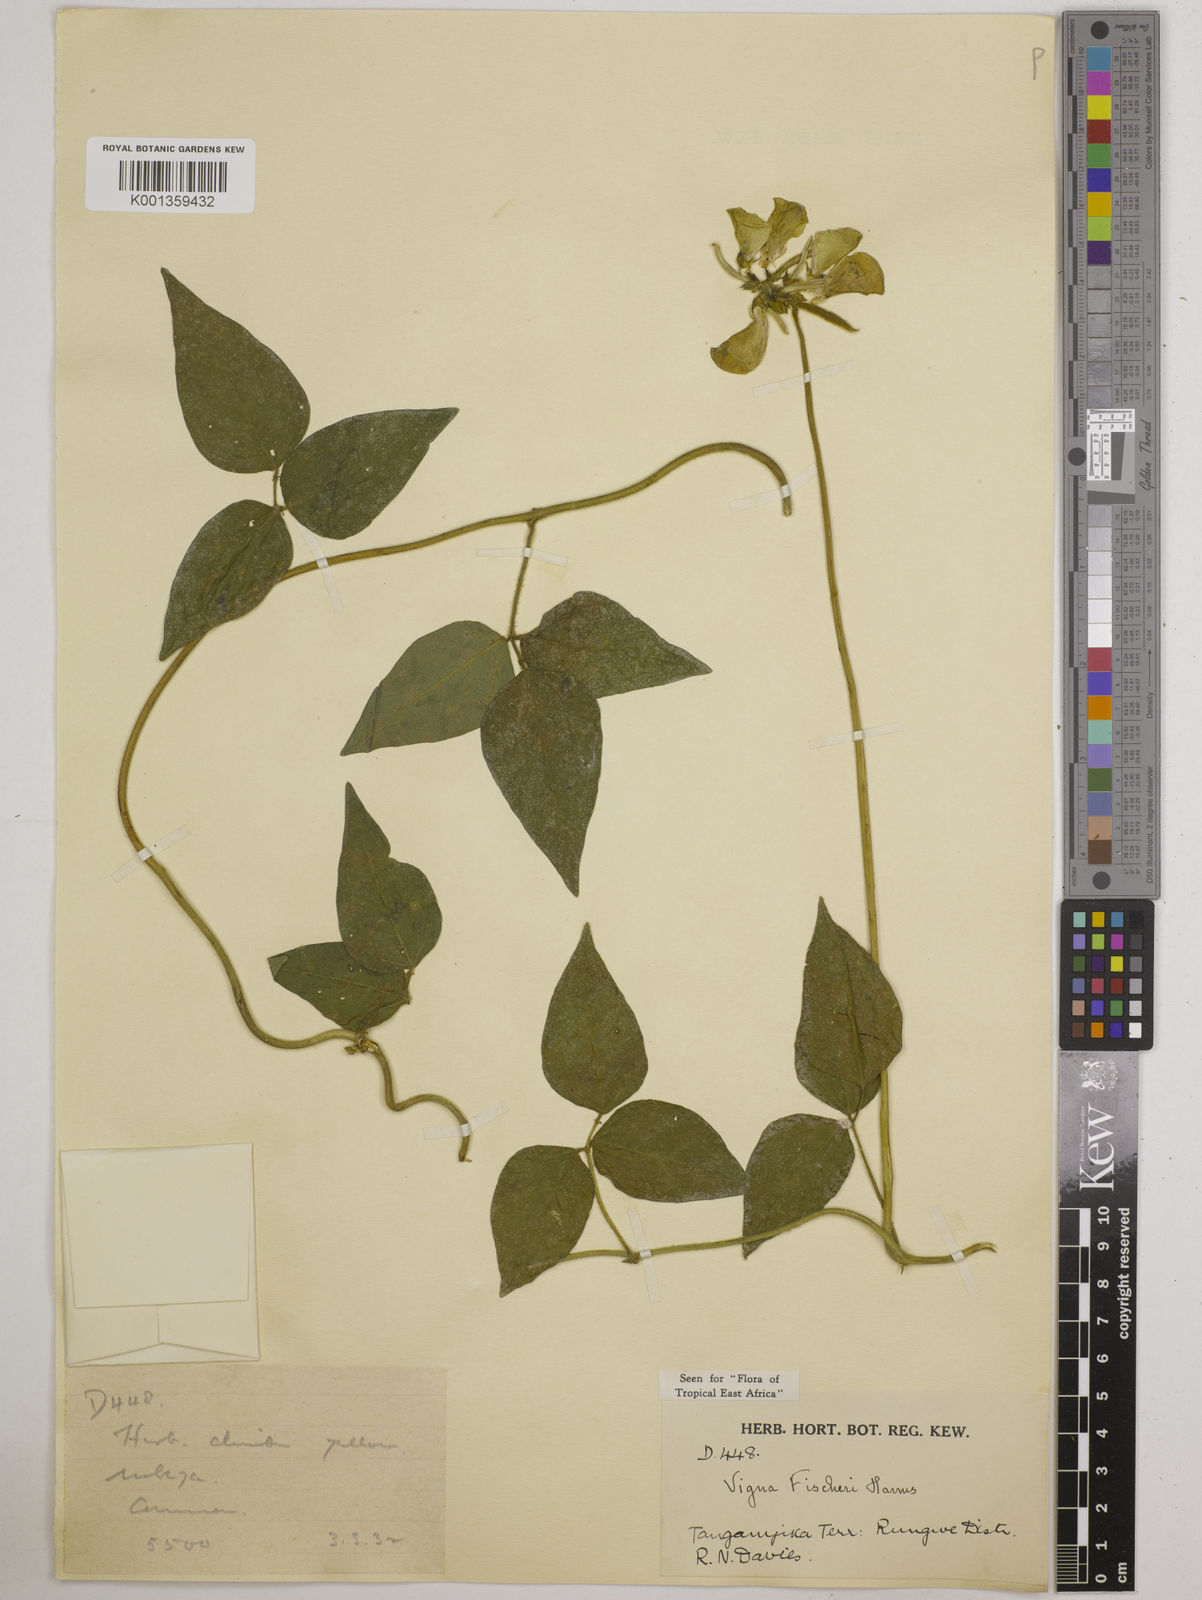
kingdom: Plantae
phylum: Tracheophyta
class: Magnoliopsida
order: Fabales
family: Fabaceae
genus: Vigna
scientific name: Vigna fischeri
